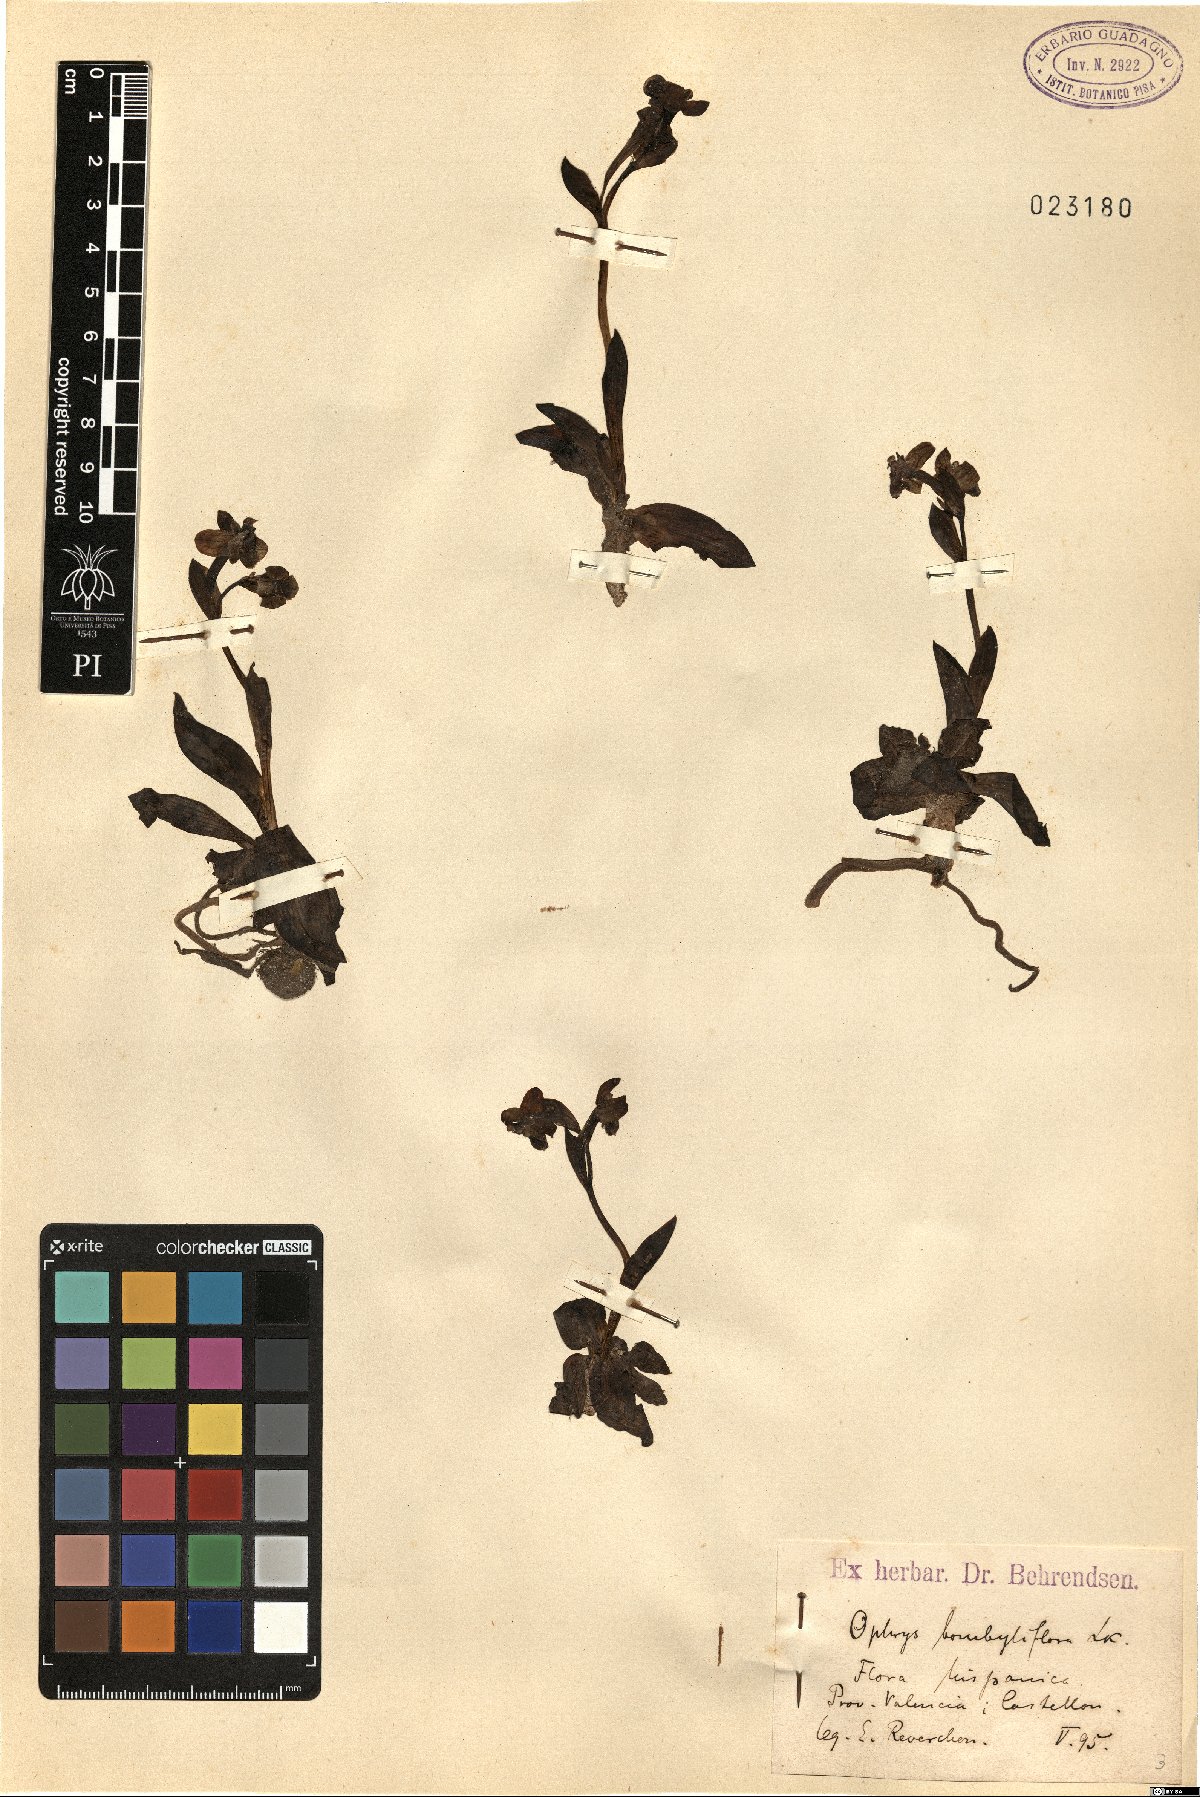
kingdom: Plantae
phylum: Tracheophyta
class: Liliopsida
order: Asparagales
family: Orchidaceae
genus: Ophrys
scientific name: Ophrys bombyliflora
